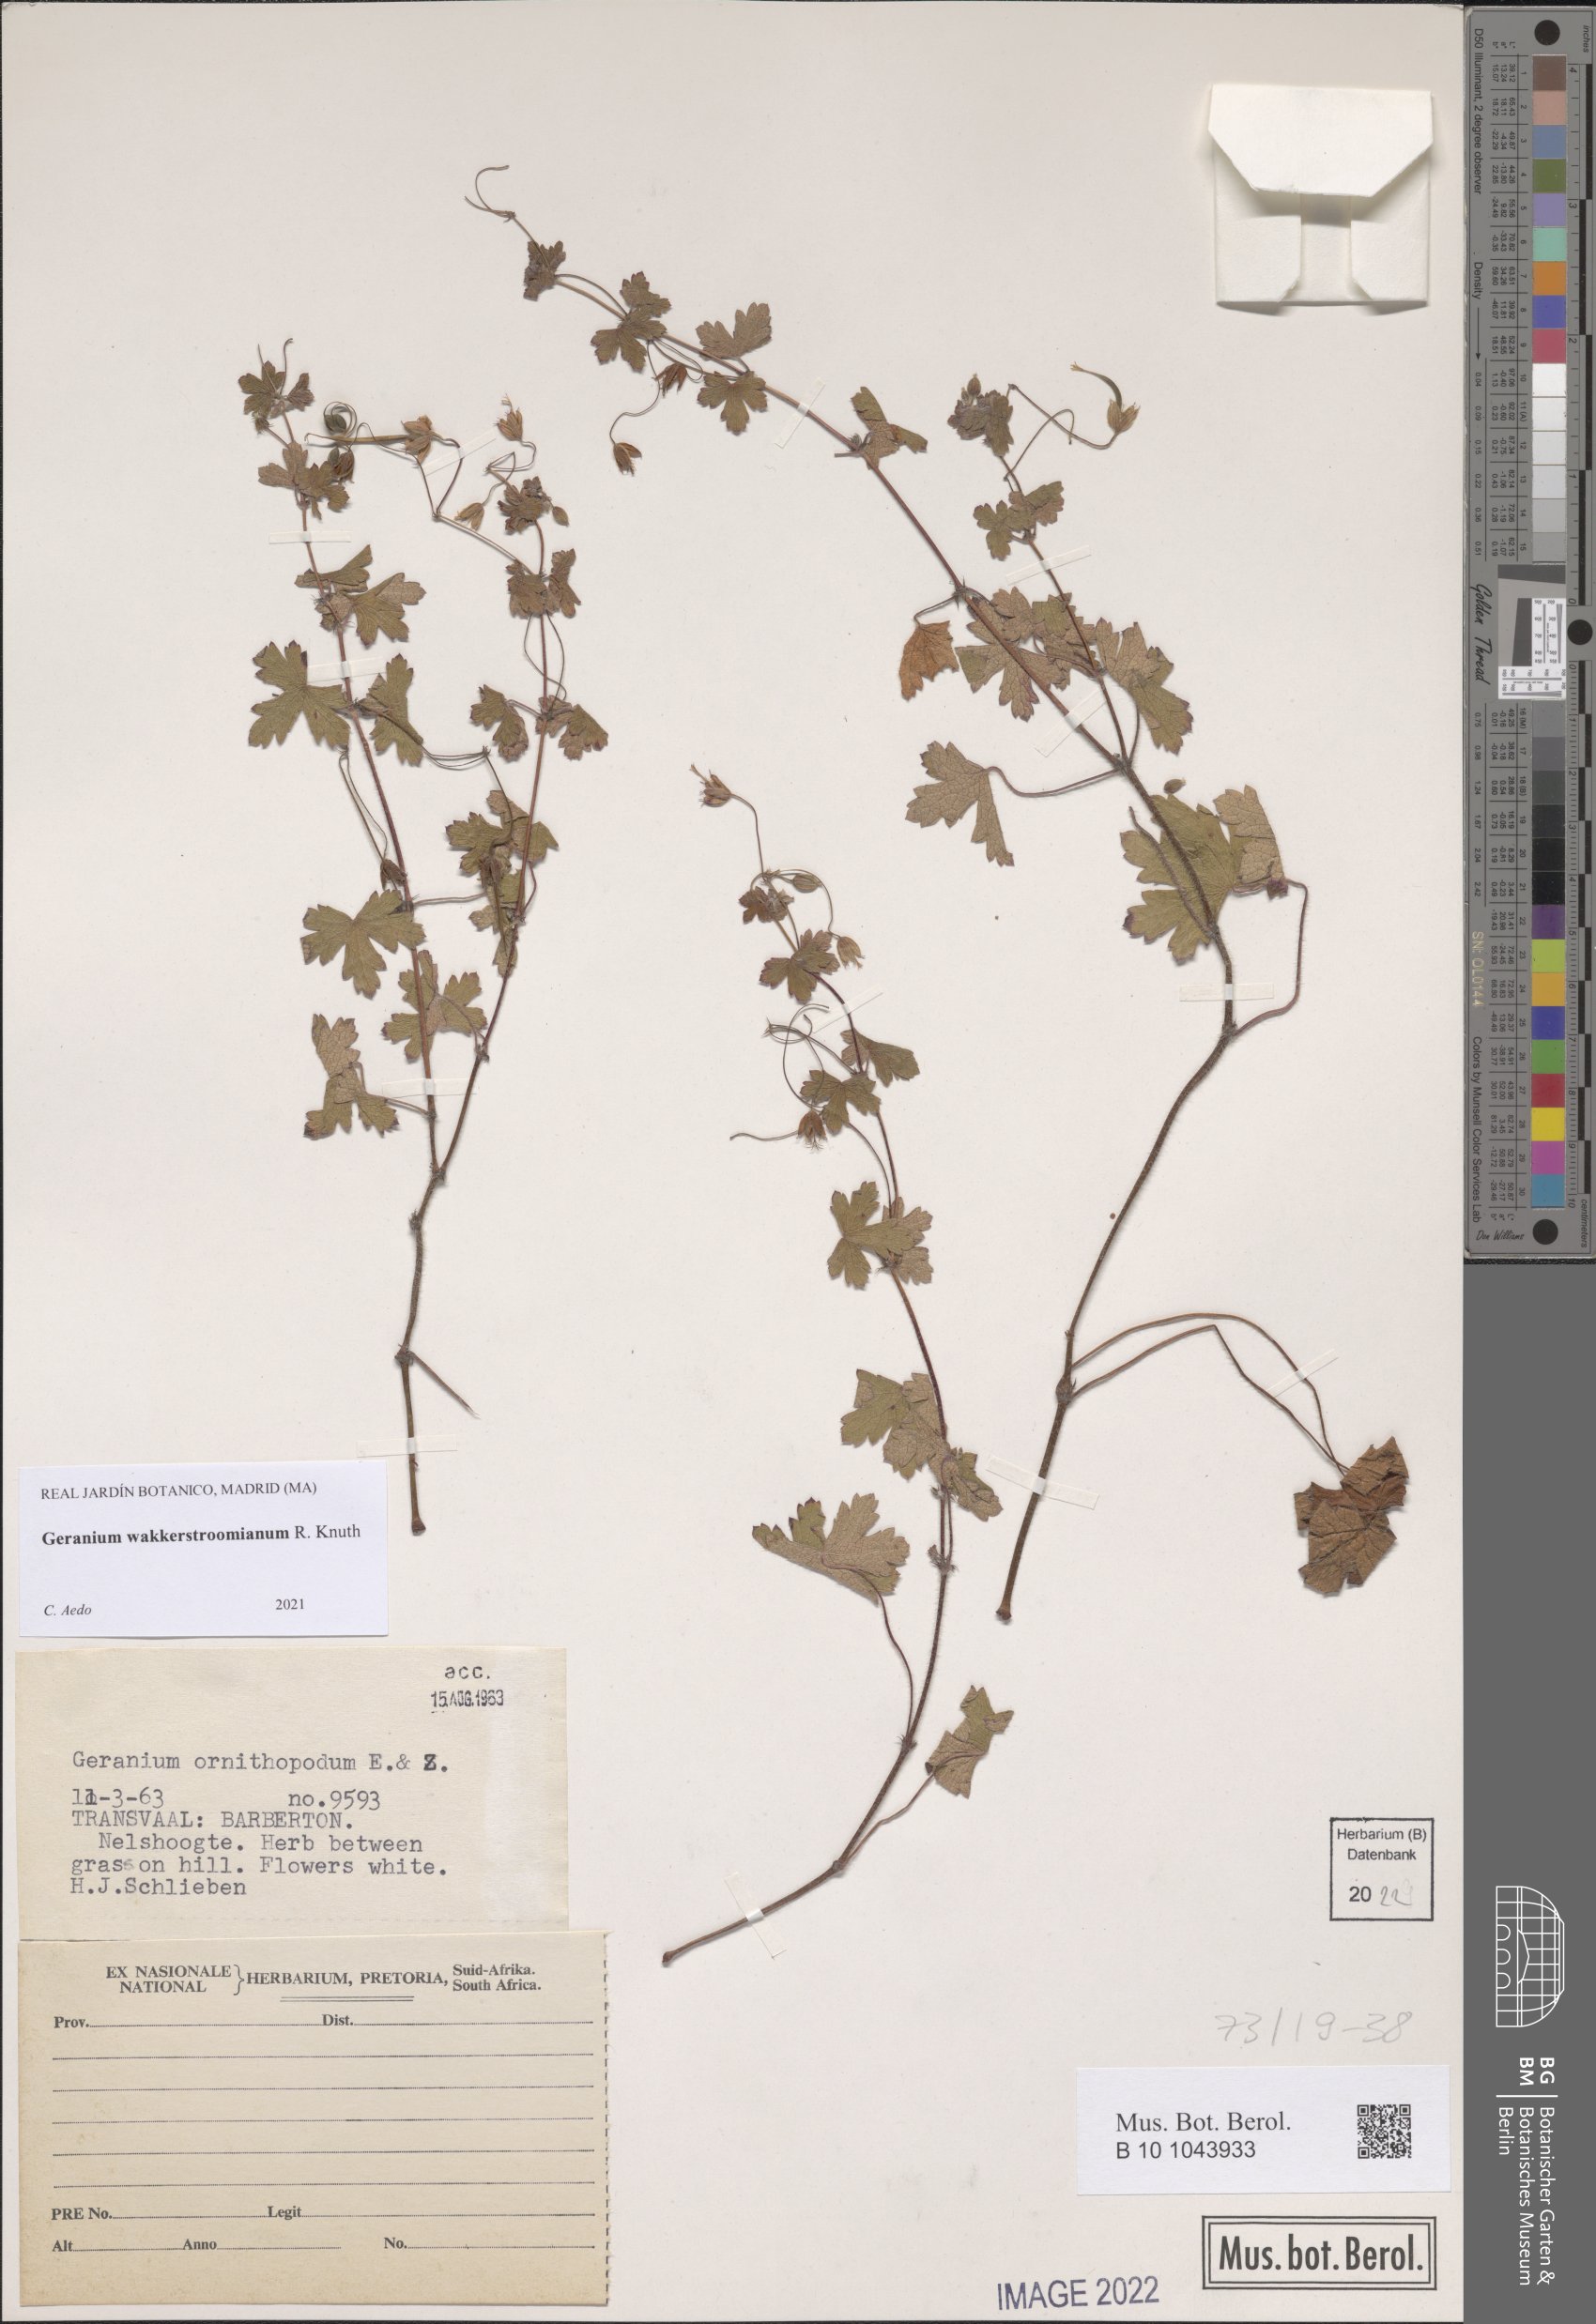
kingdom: Plantae
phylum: Tracheophyta
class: Magnoliopsida
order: Geraniales
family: Geraniaceae
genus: Geranium
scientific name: Geranium wakkerstroomianum
